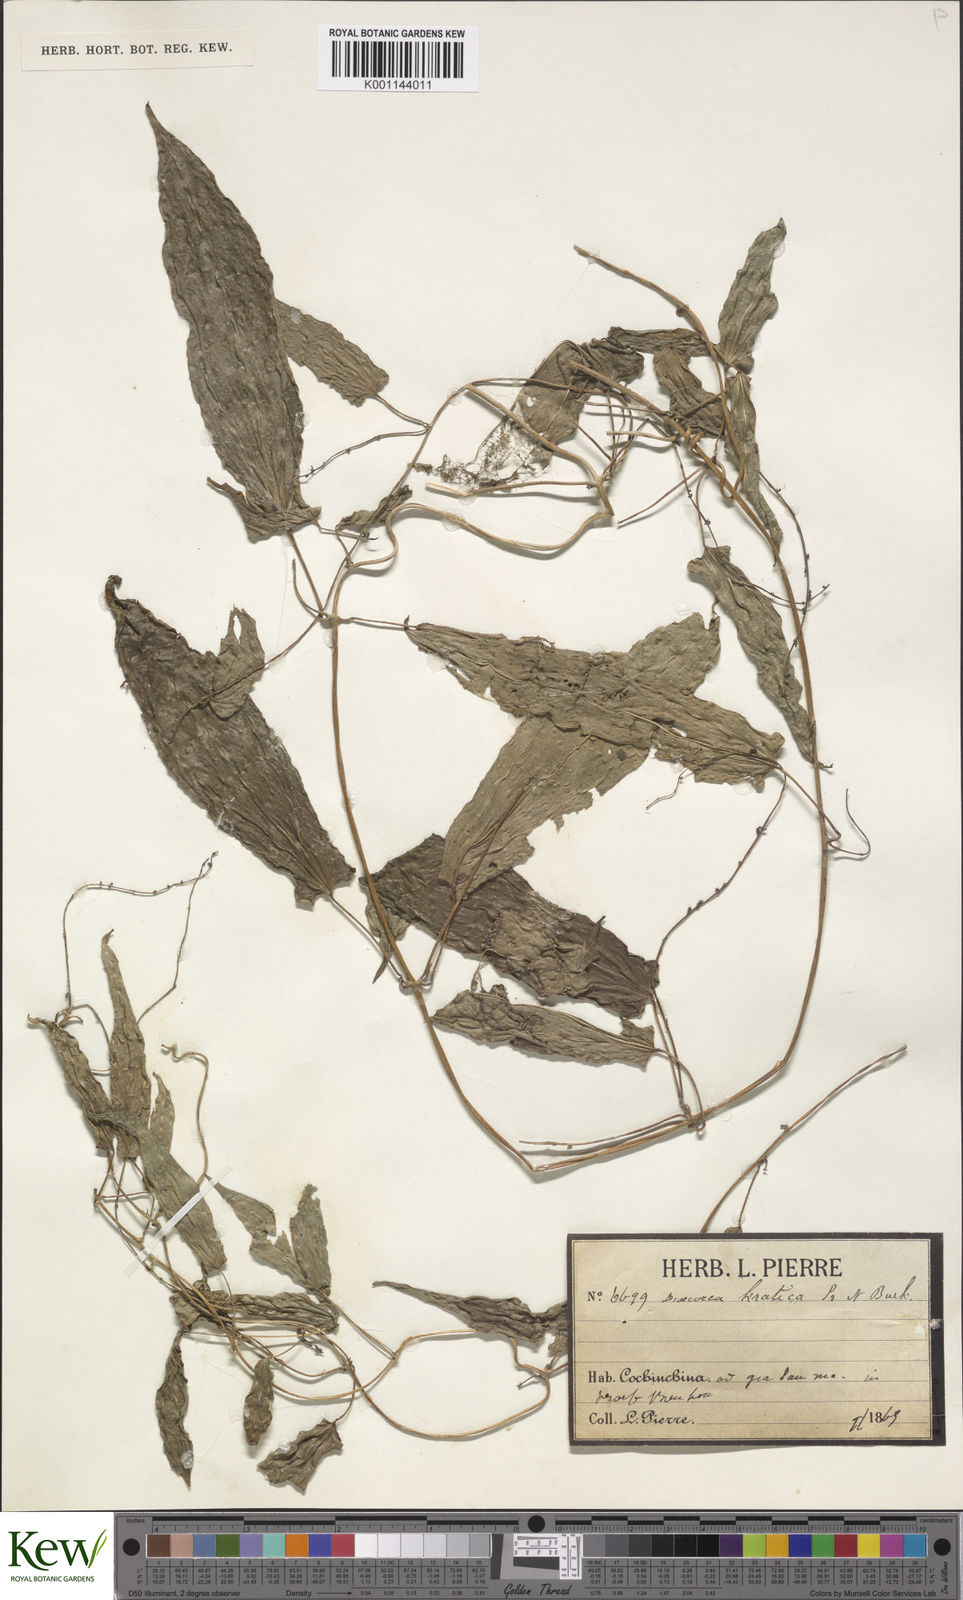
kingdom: Plantae
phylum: Tracheophyta
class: Liliopsida
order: Dioscoreales
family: Dioscoreaceae
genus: Dioscorea
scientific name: Dioscorea kratica
